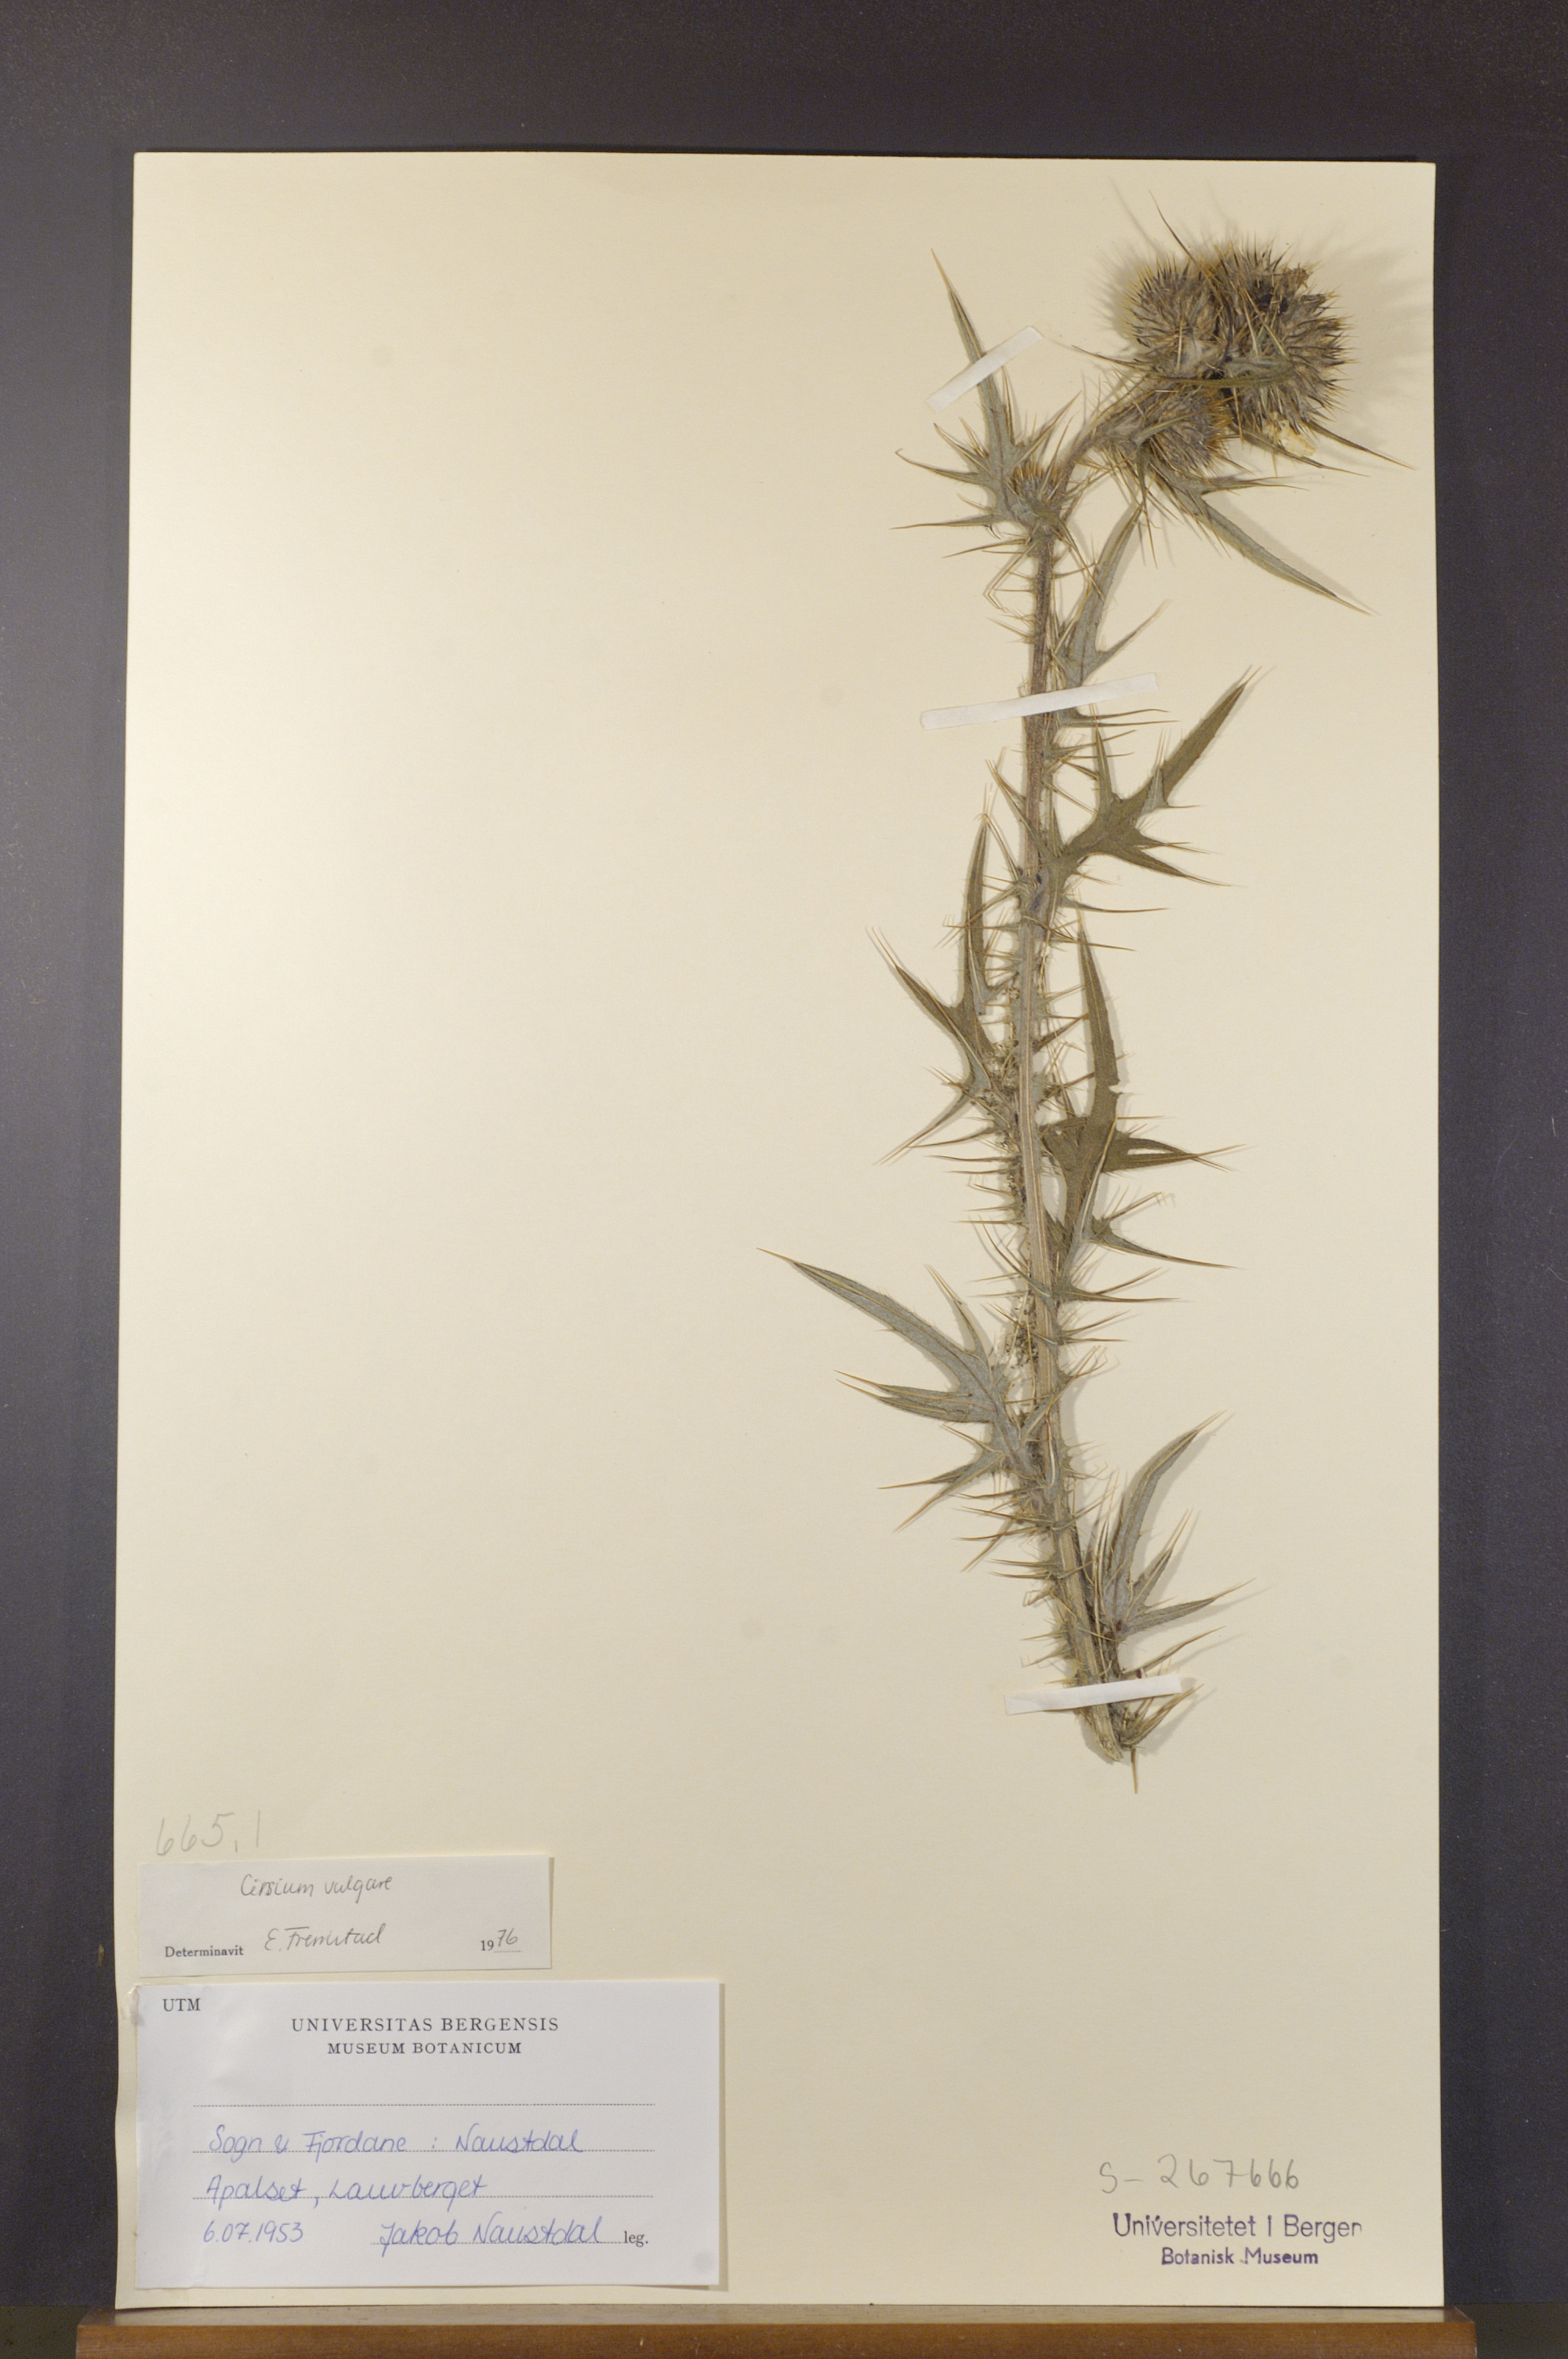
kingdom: Plantae
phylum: Tracheophyta
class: Magnoliopsida
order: Asterales
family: Asteraceae
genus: Cirsium
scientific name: Cirsium vulgare
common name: Bull thistle
